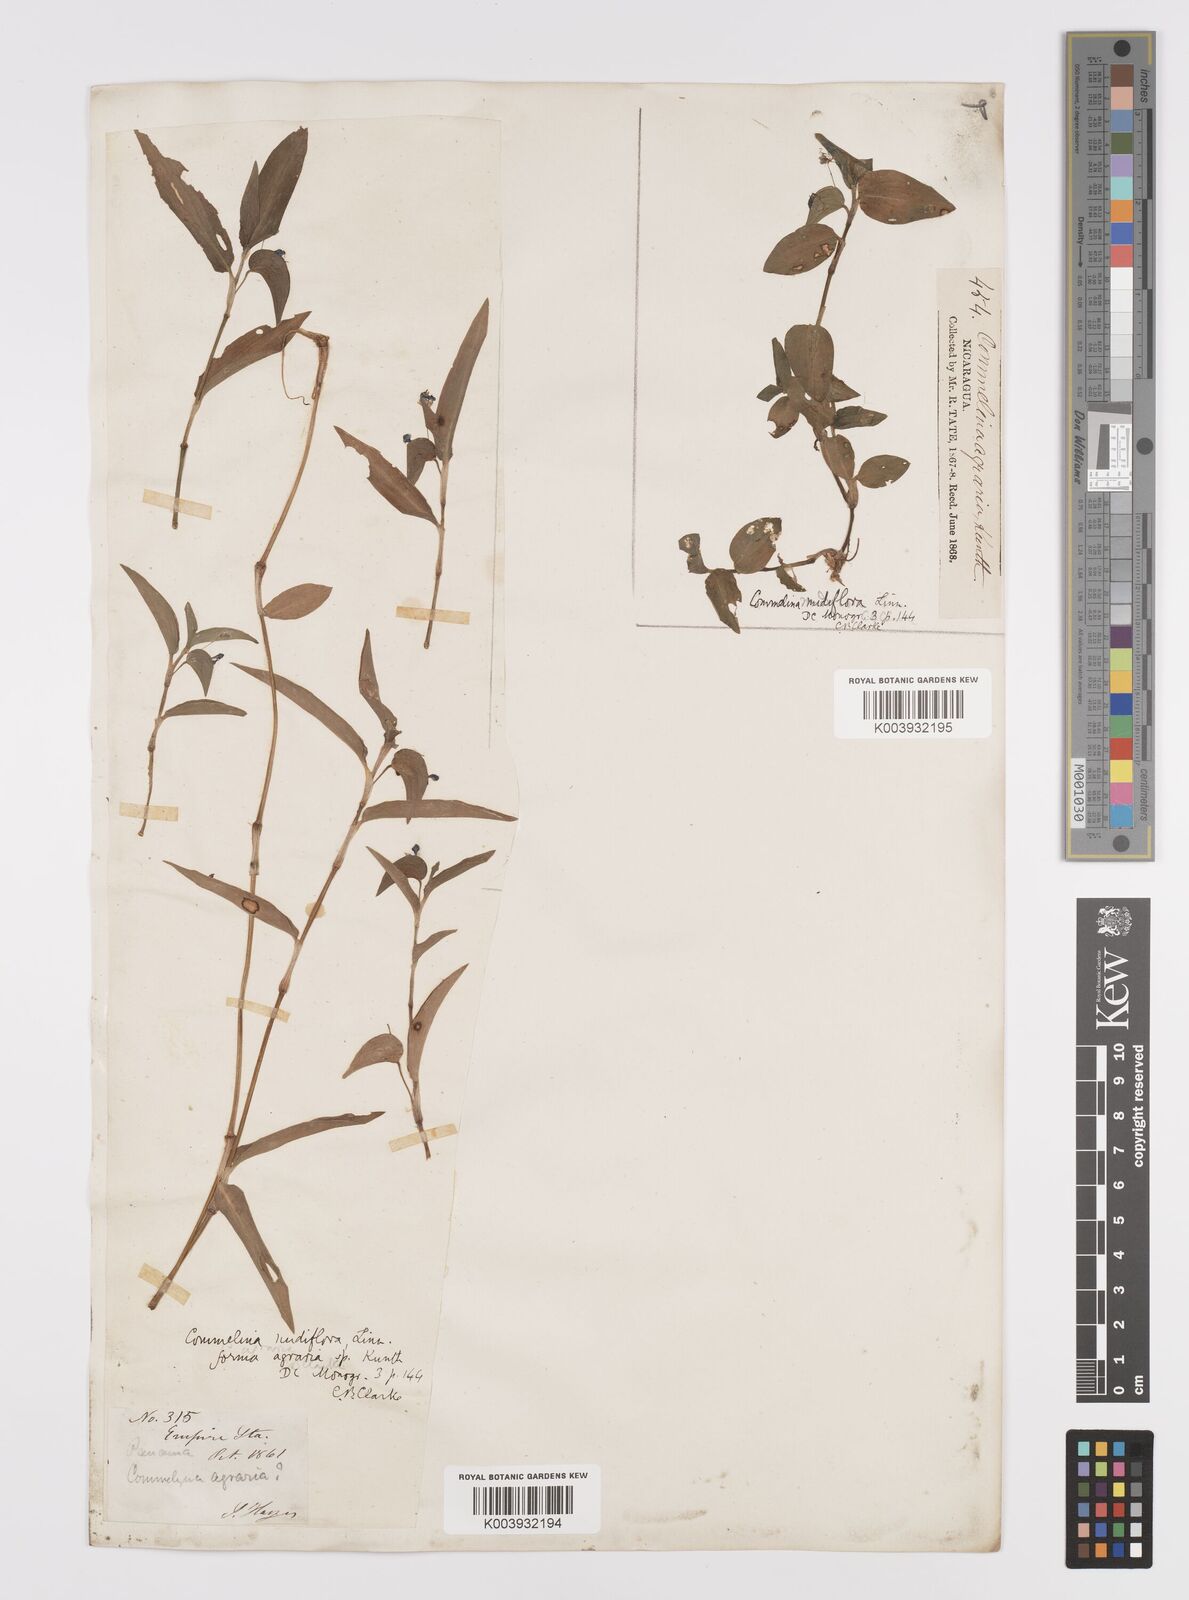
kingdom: Plantae
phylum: Tracheophyta
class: Liliopsida
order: Commelinales
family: Commelinaceae
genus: Commelina
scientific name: Commelina diffusa
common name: Climbing dayflower
